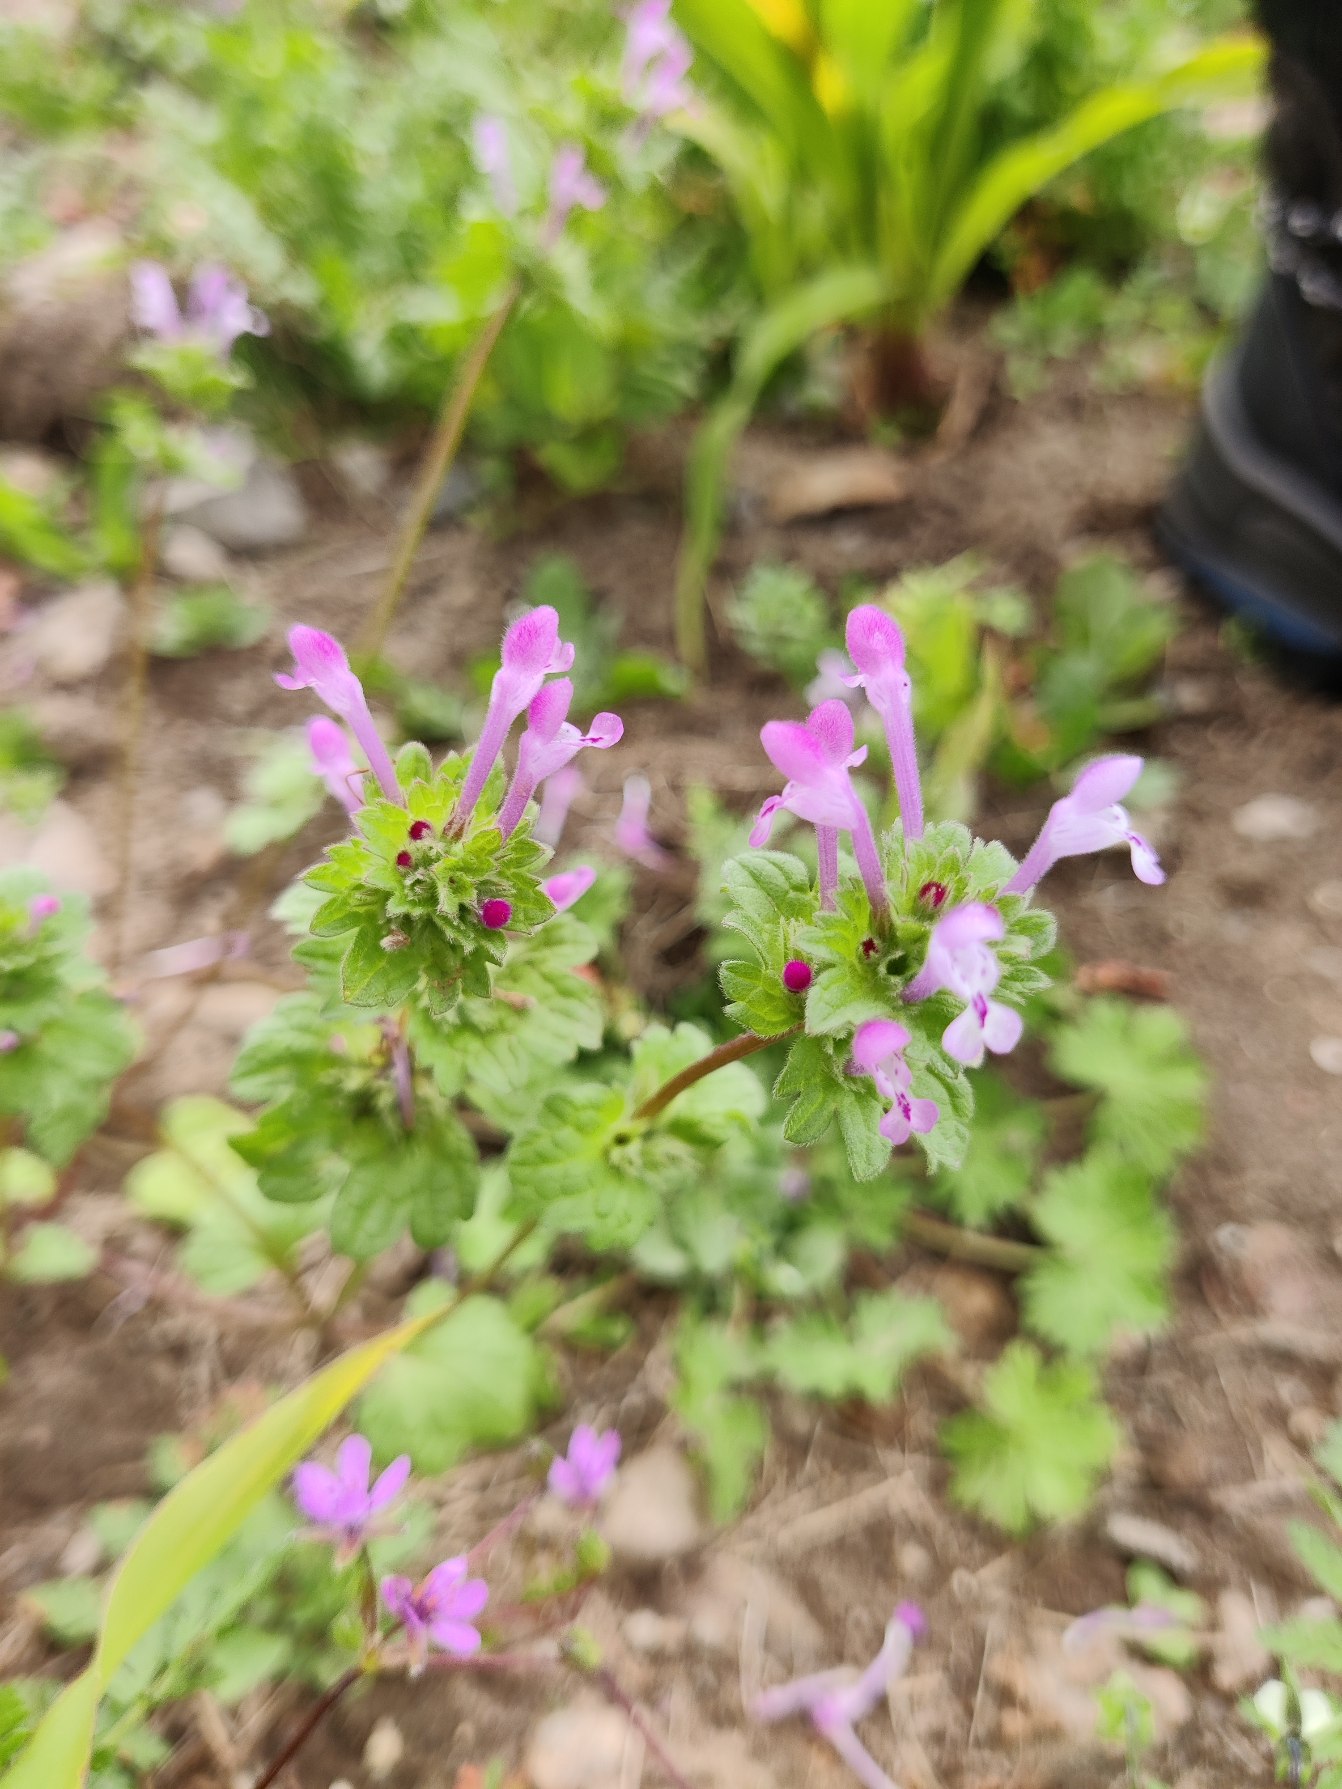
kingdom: Plantae
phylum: Tracheophyta
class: Magnoliopsida
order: Lamiales
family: Lamiaceae
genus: Lamium
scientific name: Lamium amplexicaule
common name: Liden tvetand
